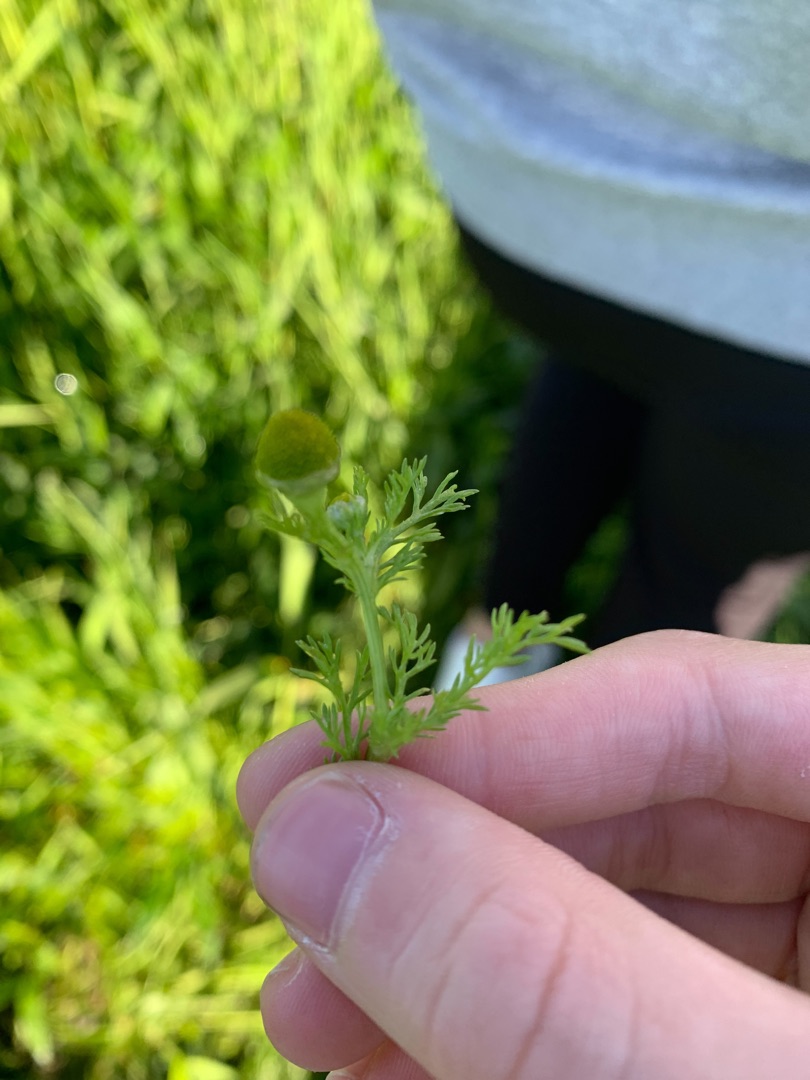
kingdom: Plantae
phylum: Tracheophyta
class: Magnoliopsida
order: Asterales
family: Asteraceae
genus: Matricaria
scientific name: Matricaria discoidea
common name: Skive-kamille
